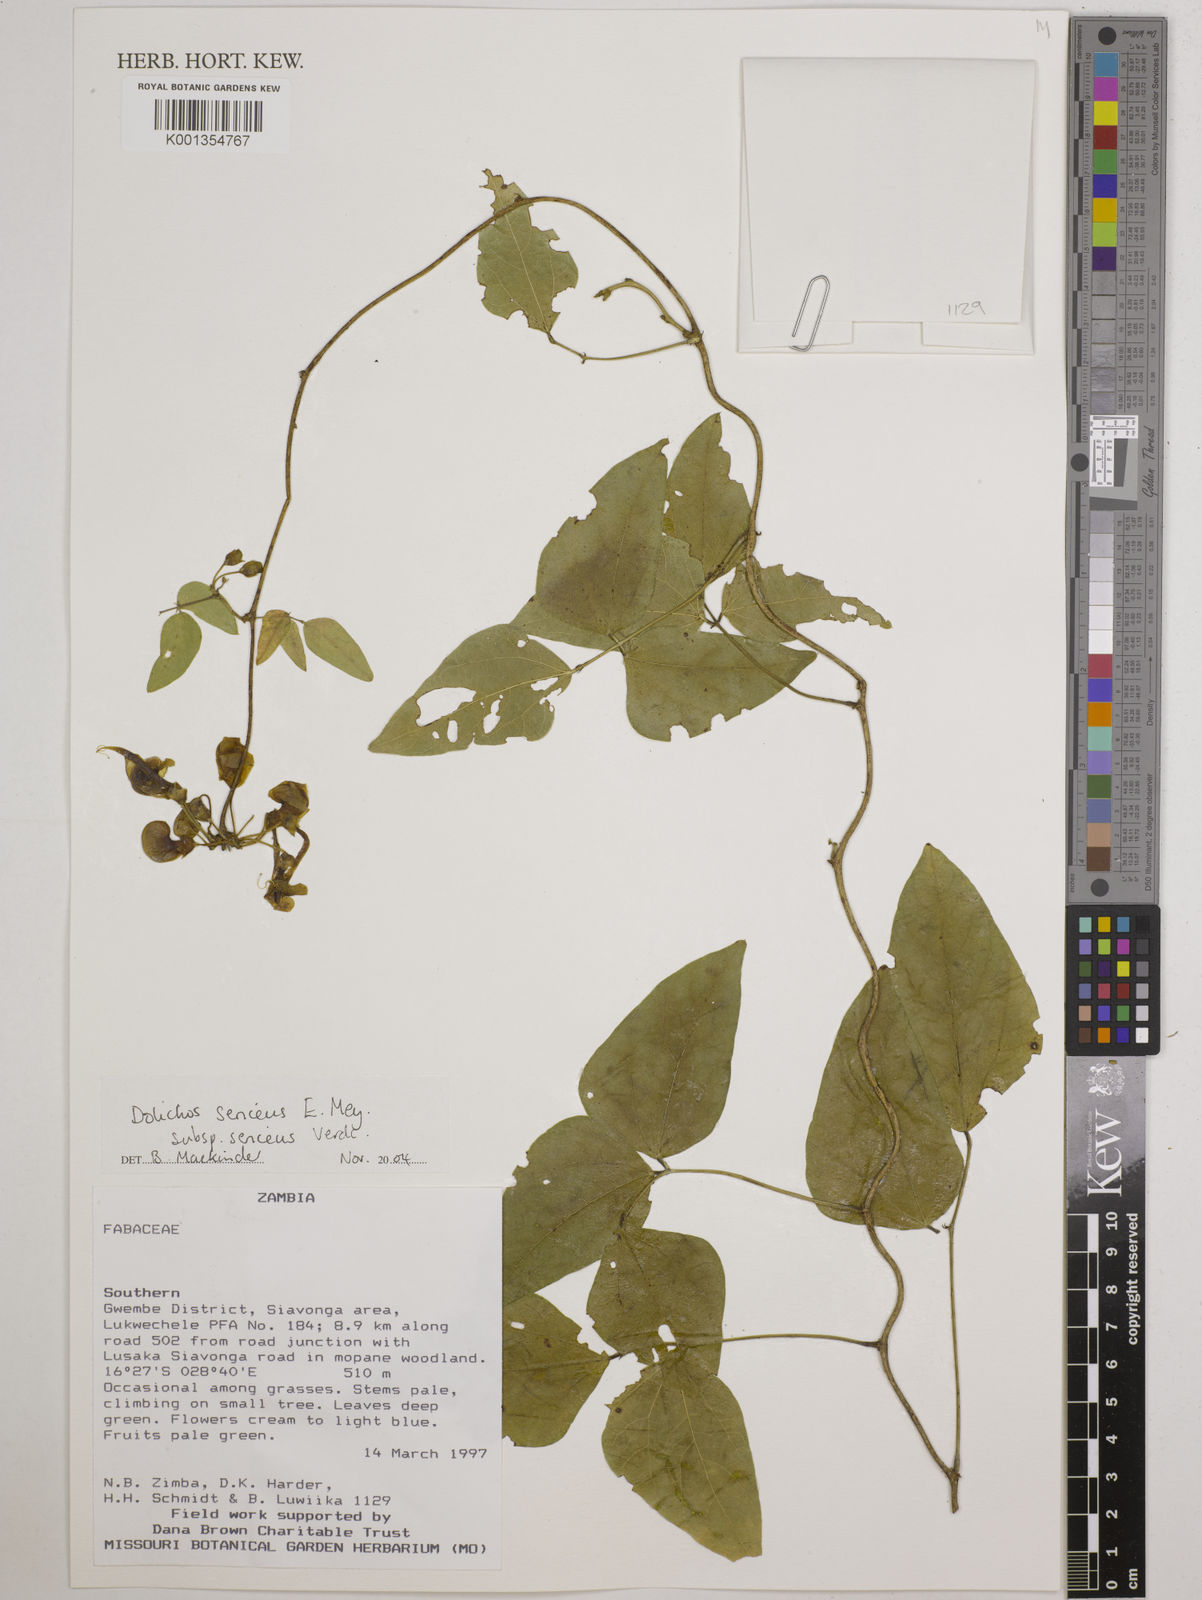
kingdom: Plantae
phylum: Tracheophyta
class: Magnoliopsida
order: Fabales
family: Fabaceae
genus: Dolichos
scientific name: Dolichos
